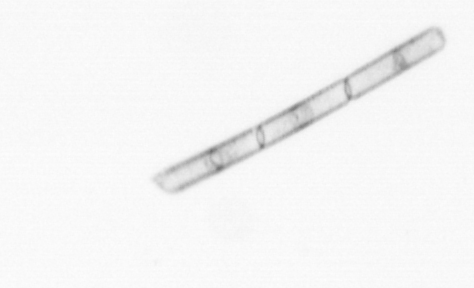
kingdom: Chromista
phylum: Ochrophyta
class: Bacillariophyceae
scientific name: Bacillariophyceae
